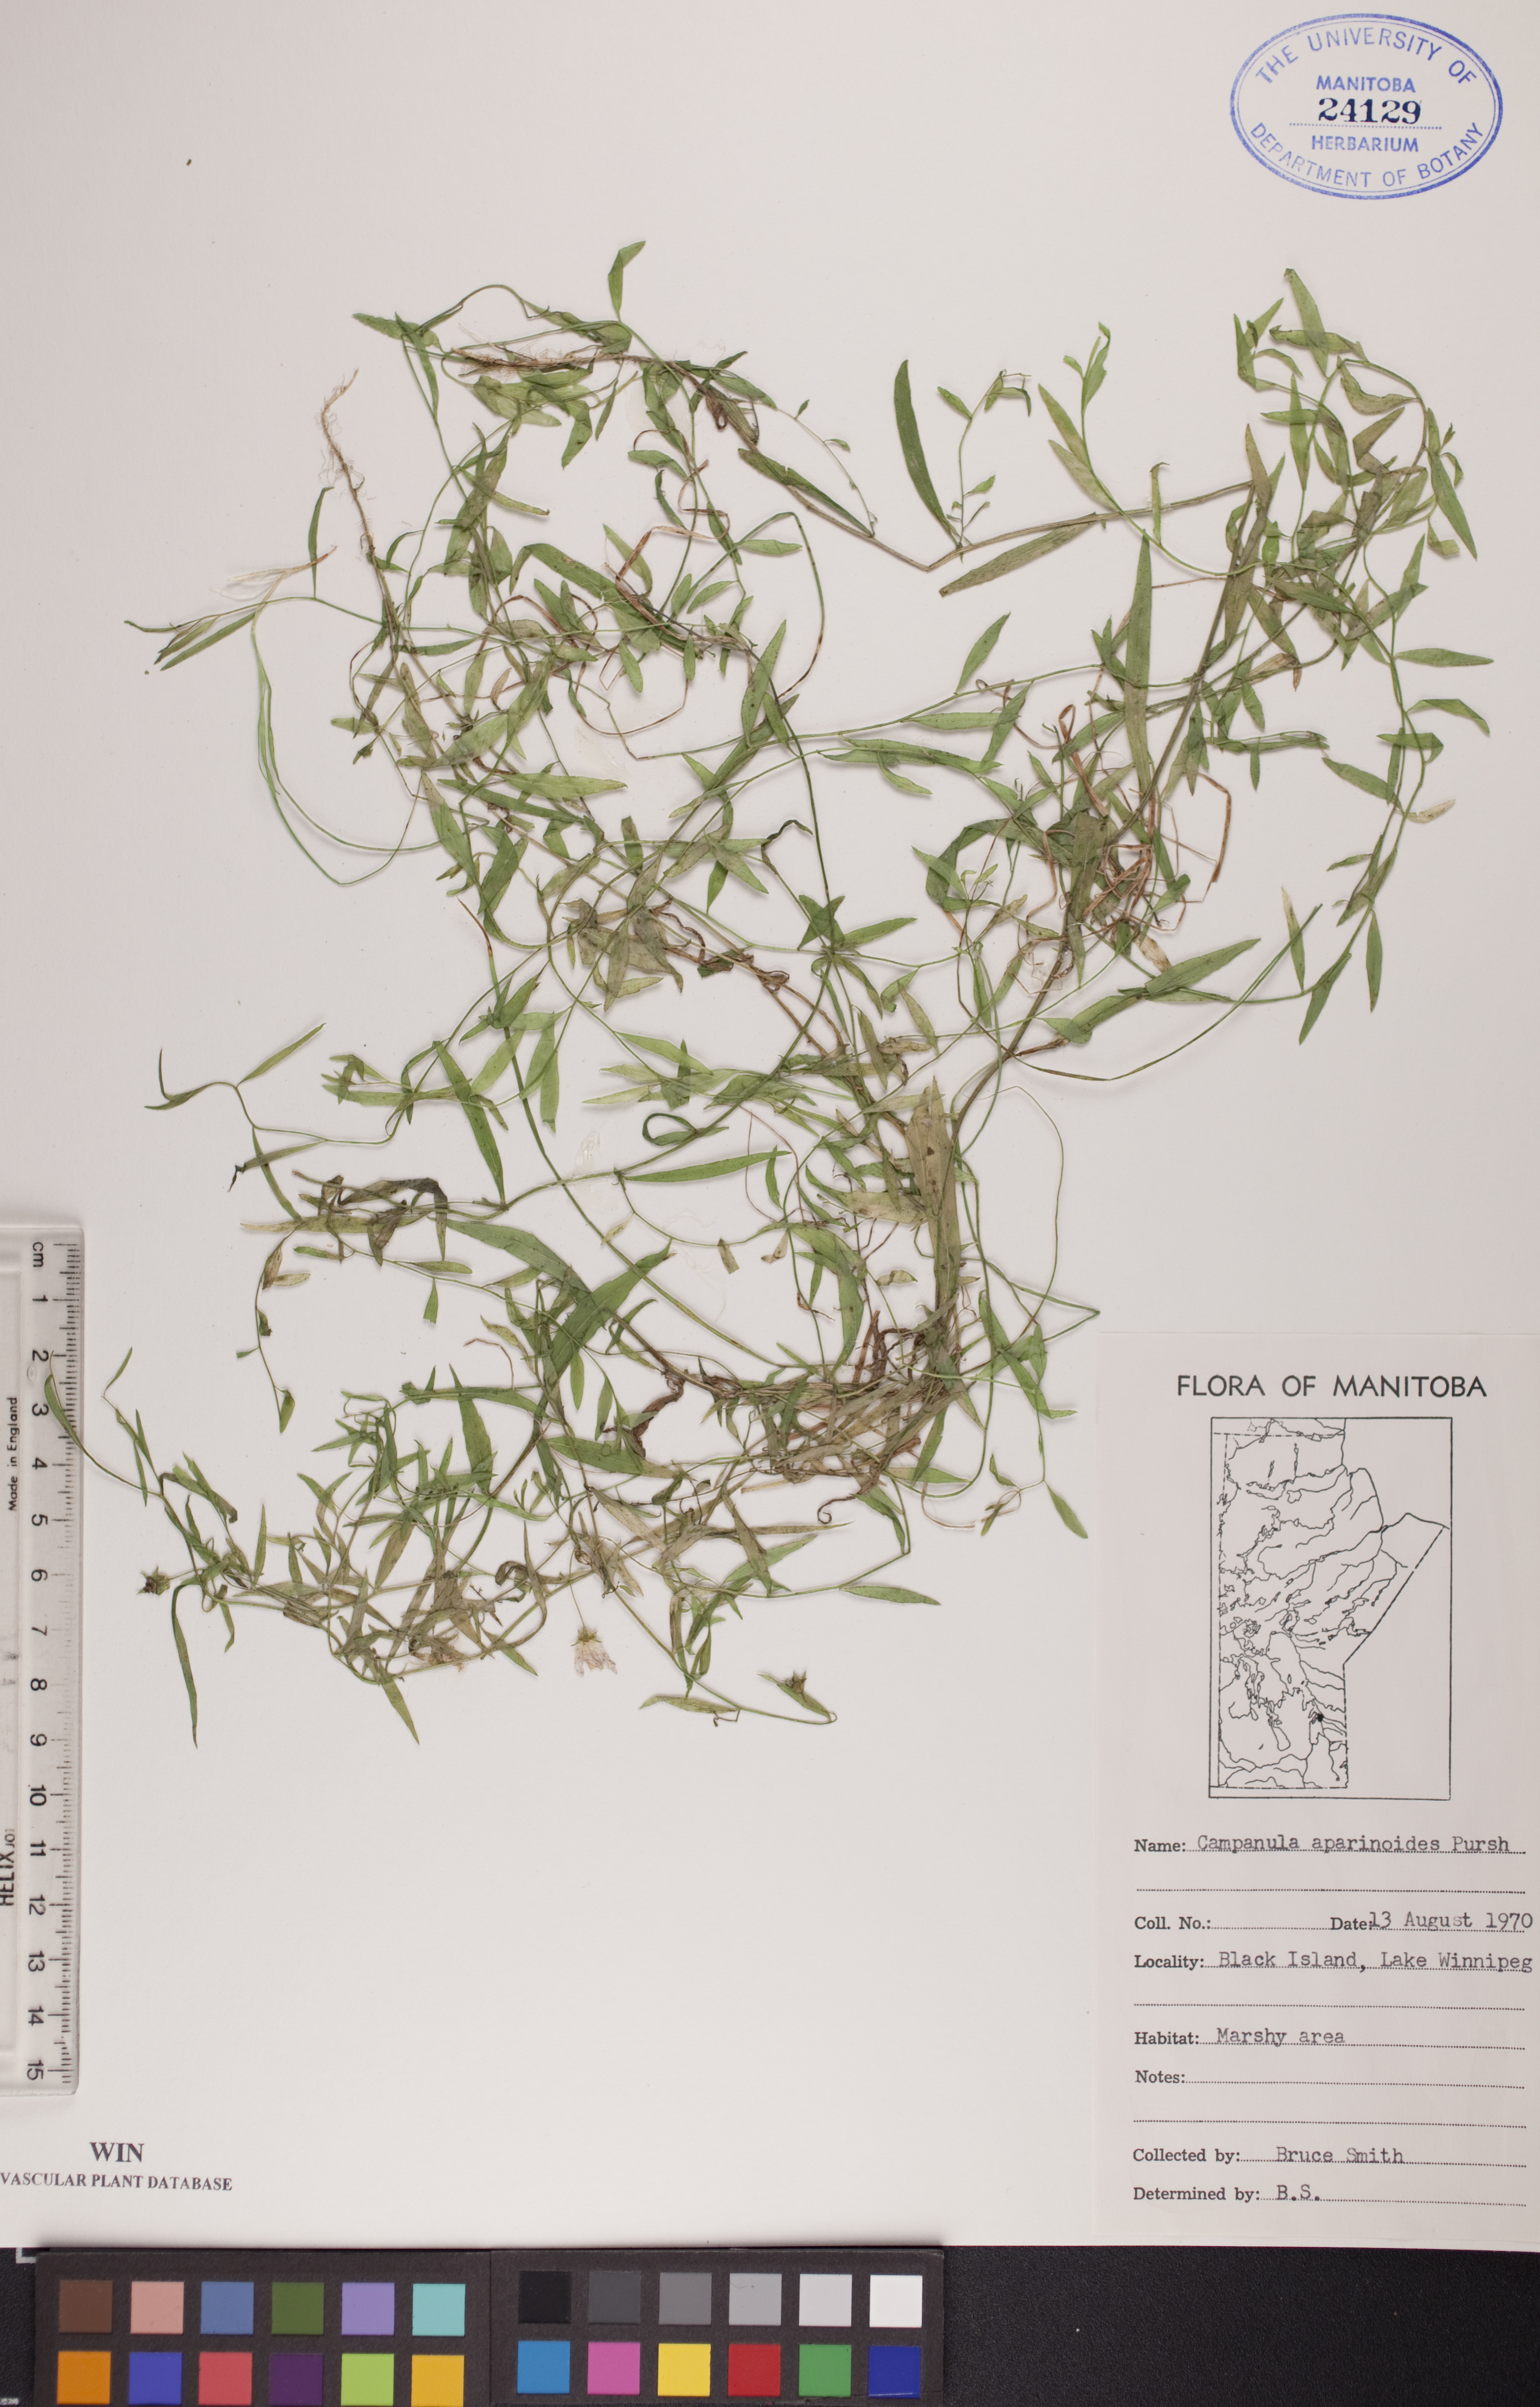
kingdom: Plantae
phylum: Tracheophyta
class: Magnoliopsida
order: Asterales
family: Campanulaceae
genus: Palustricodon
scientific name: Palustricodon aparinoides
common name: Bedstraw bellflower
